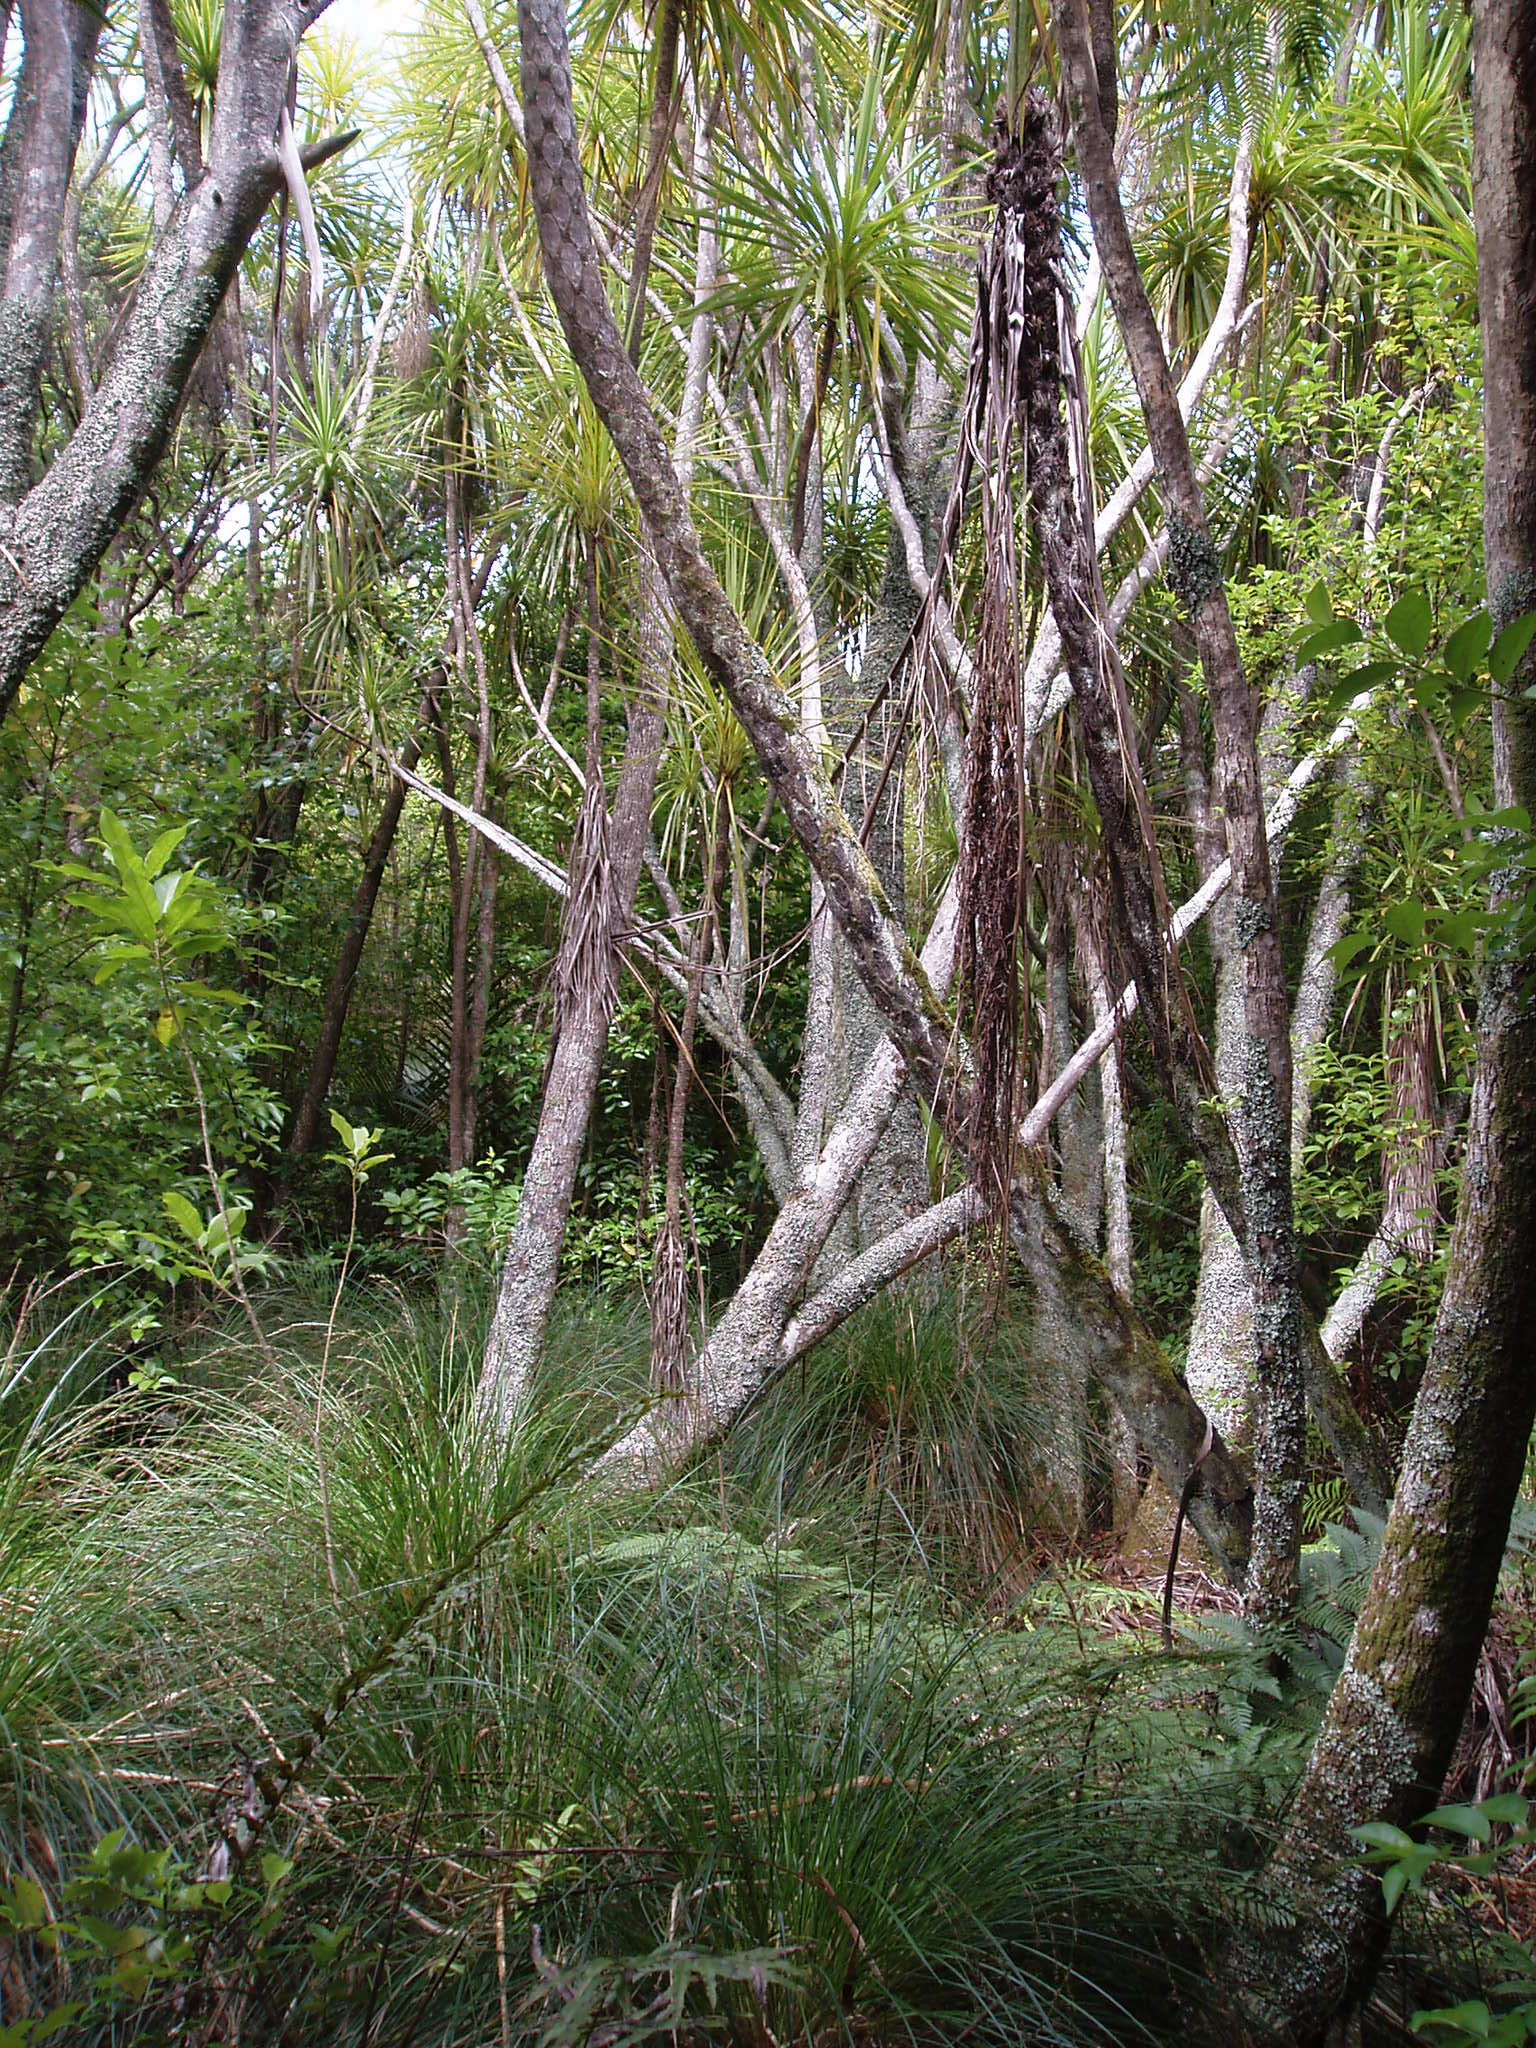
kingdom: Plantae
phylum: Tracheophyta
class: Polypodiopsida
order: Polypodiales
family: Athyriaceae
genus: Deparia
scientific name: Deparia petersenii
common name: Japanese false spleenwort
